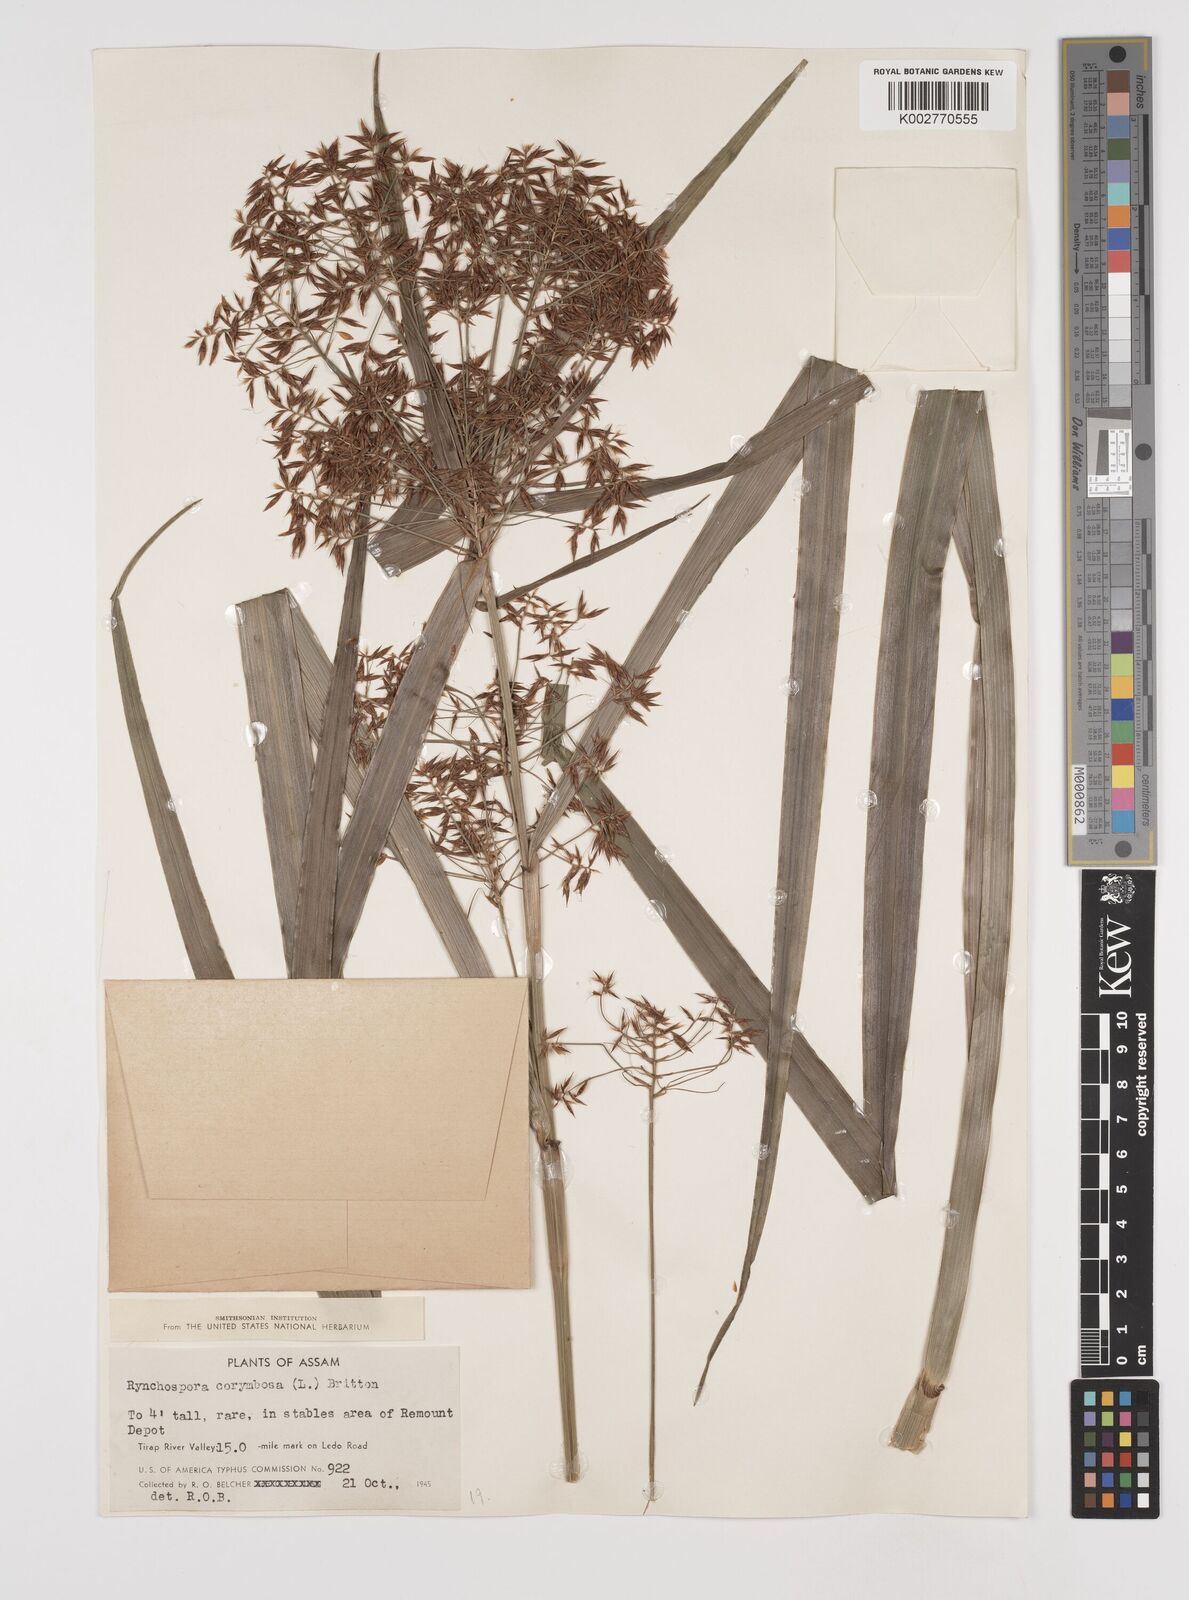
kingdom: Plantae
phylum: Tracheophyta
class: Liliopsida
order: Poales
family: Cyperaceae
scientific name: Cyperaceae
